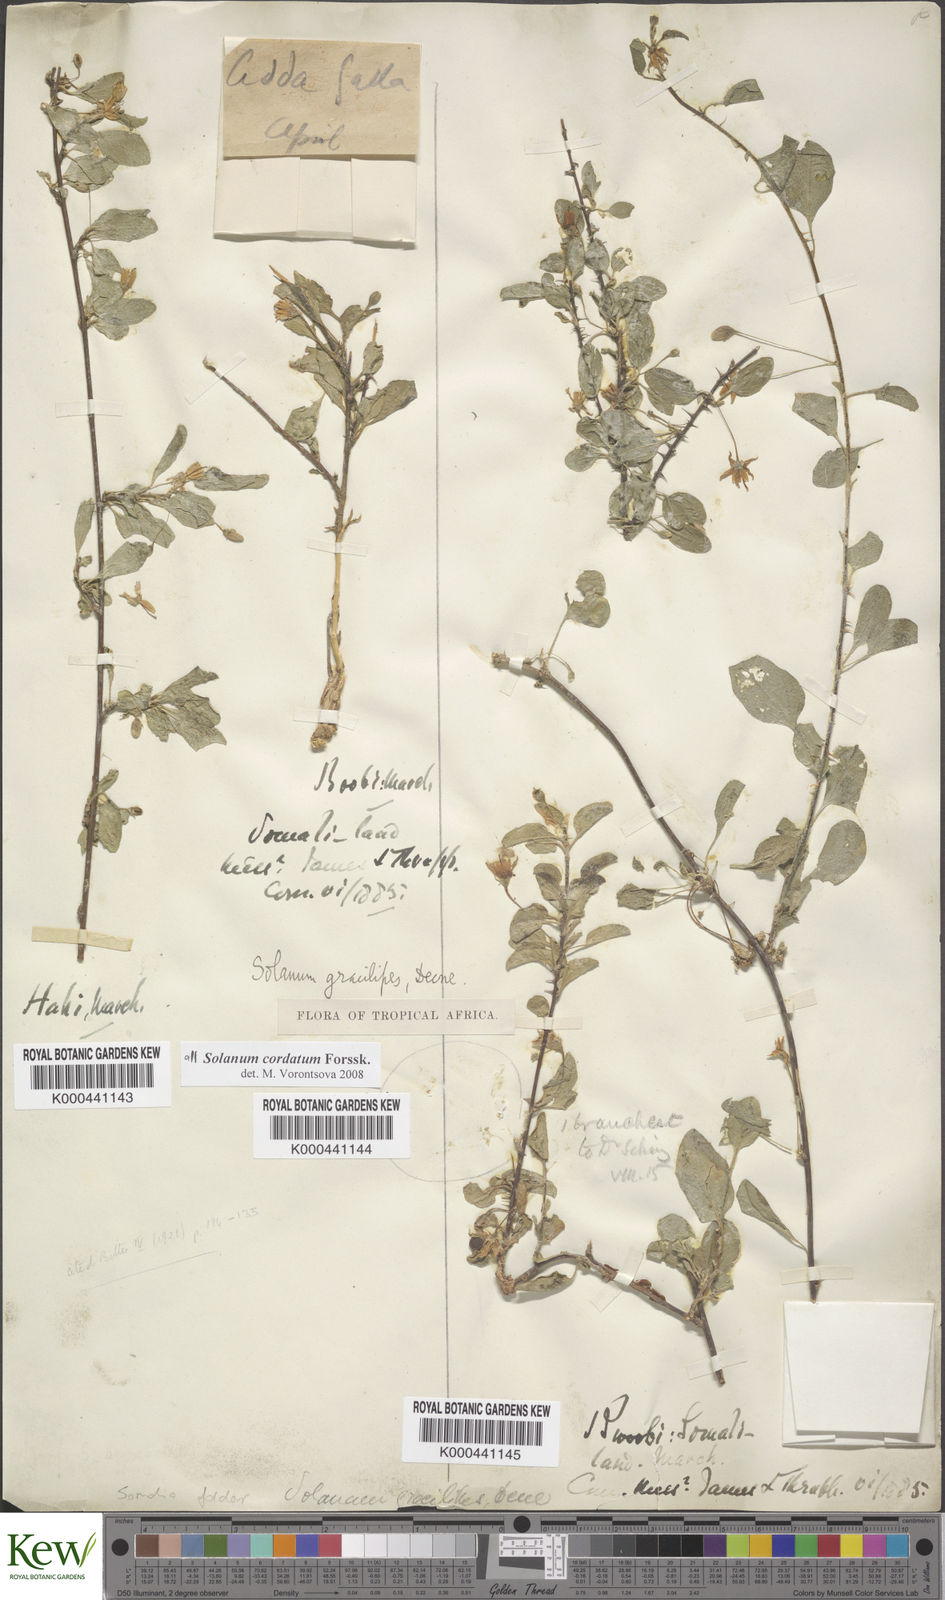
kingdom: Plantae
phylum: Tracheophyta
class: Magnoliopsida
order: Solanales
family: Solanaceae
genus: Solanum
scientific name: Solanum cordatum
